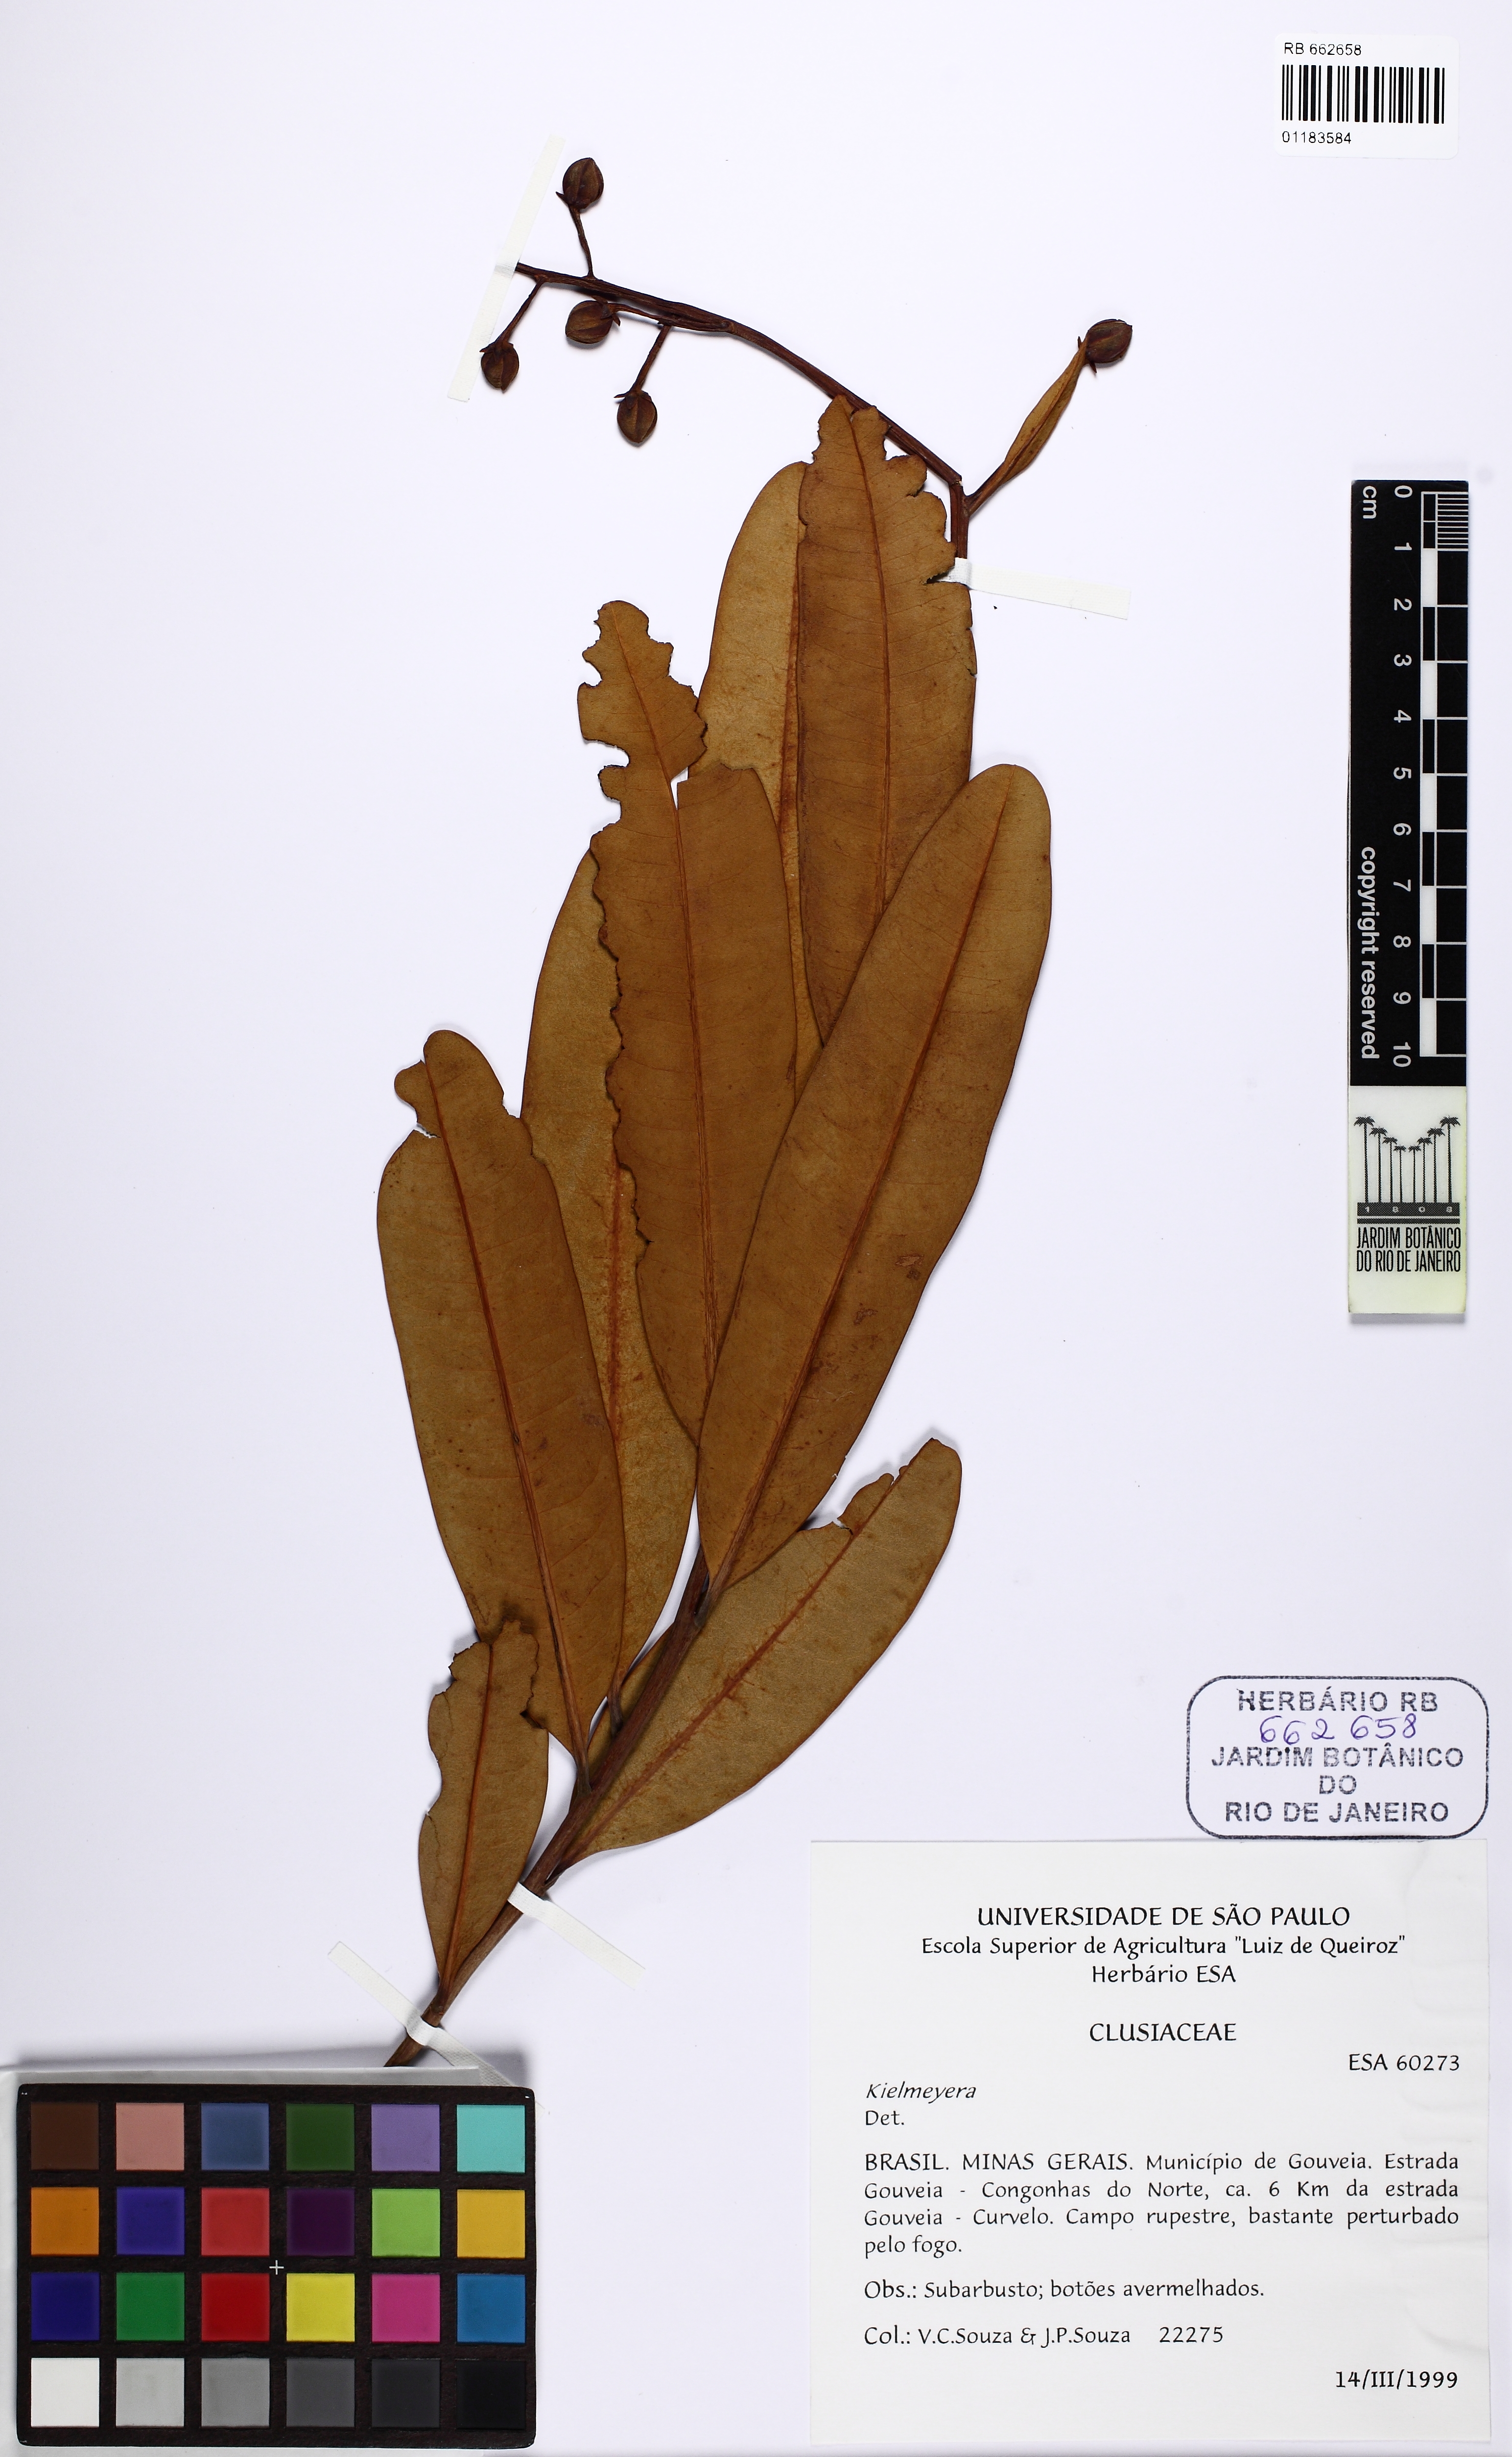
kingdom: Plantae
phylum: Tracheophyta
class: Magnoliopsida
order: Malpighiales
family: Calophyllaceae
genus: Kielmeyera
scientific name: Kielmeyera pumila
